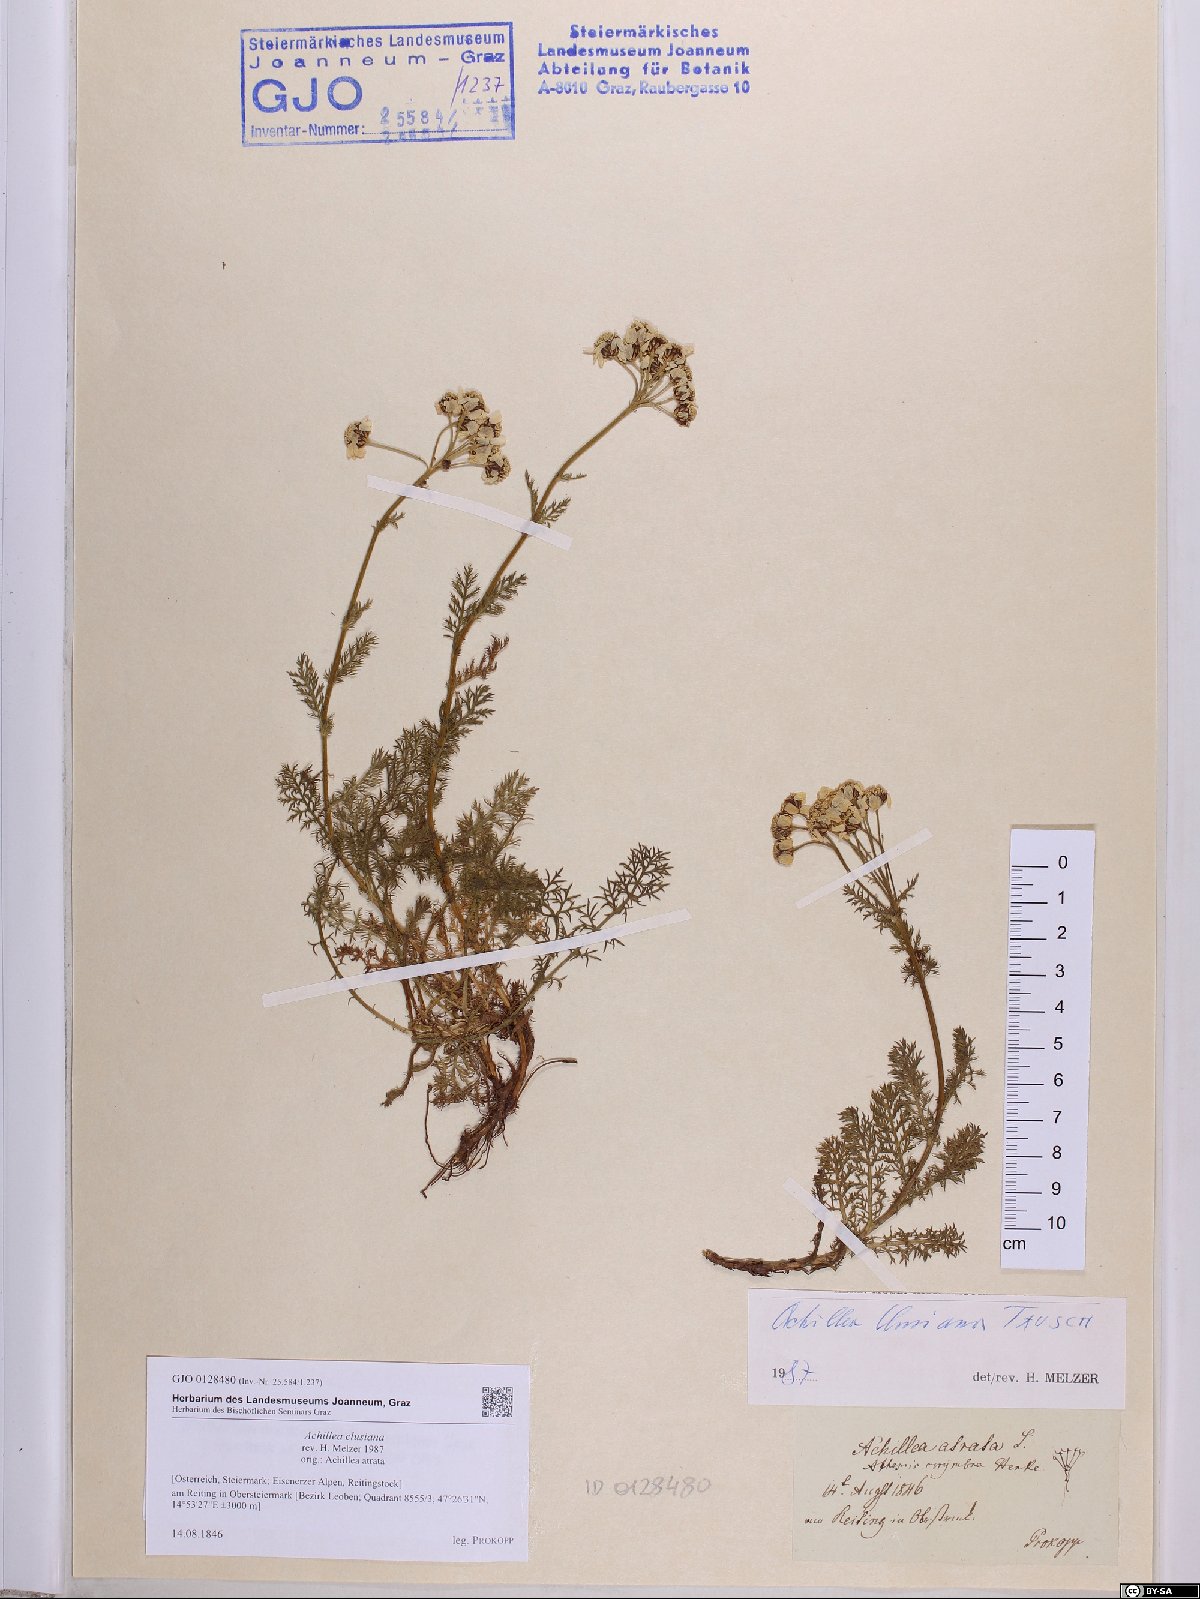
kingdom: Plantae
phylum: Tracheophyta
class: Magnoliopsida
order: Asterales
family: Asteraceae
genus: Achillea
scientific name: Achillea clusiana
